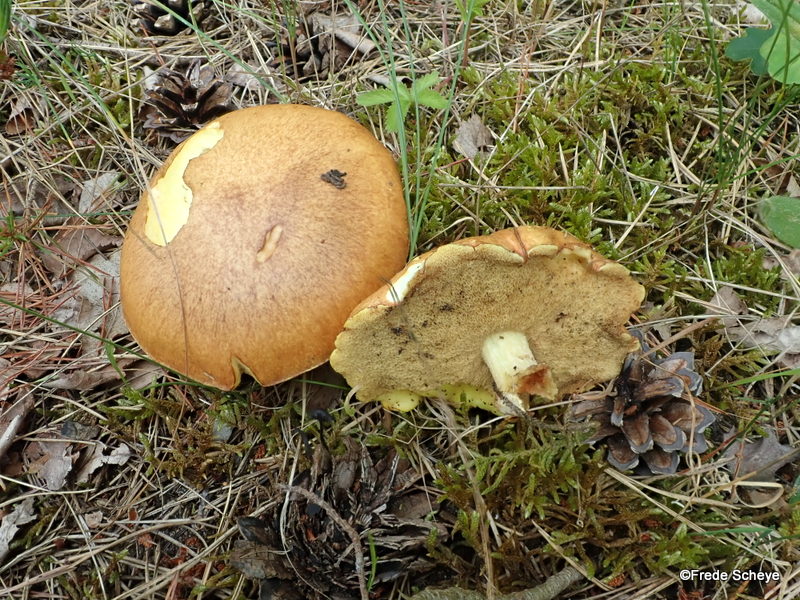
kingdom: Fungi
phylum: Basidiomycota
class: Agaricomycetes
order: Boletales
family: Suillaceae
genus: Suillus
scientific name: Suillus granulatus
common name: kornet slimrørhat
